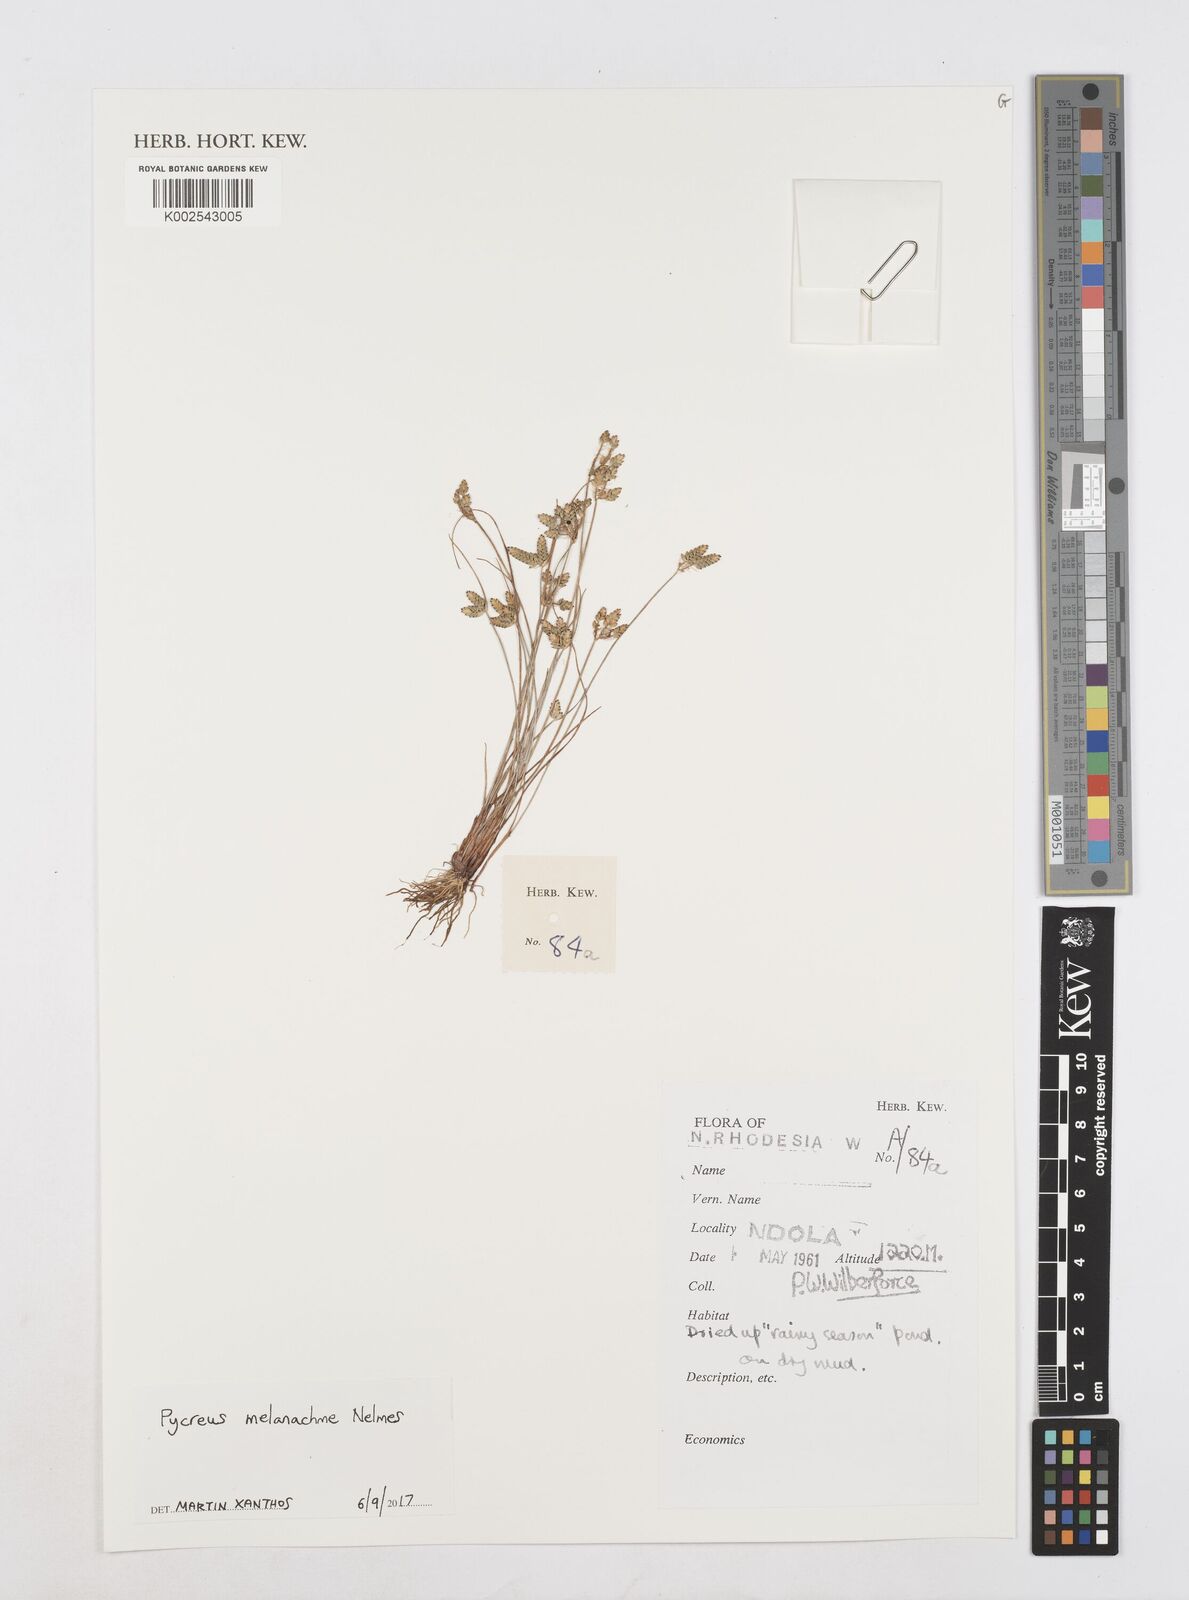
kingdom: Plantae
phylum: Tracheophyta
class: Liliopsida
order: Poales
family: Cyperaceae
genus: Cyperus
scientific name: Cyperus melanacme
